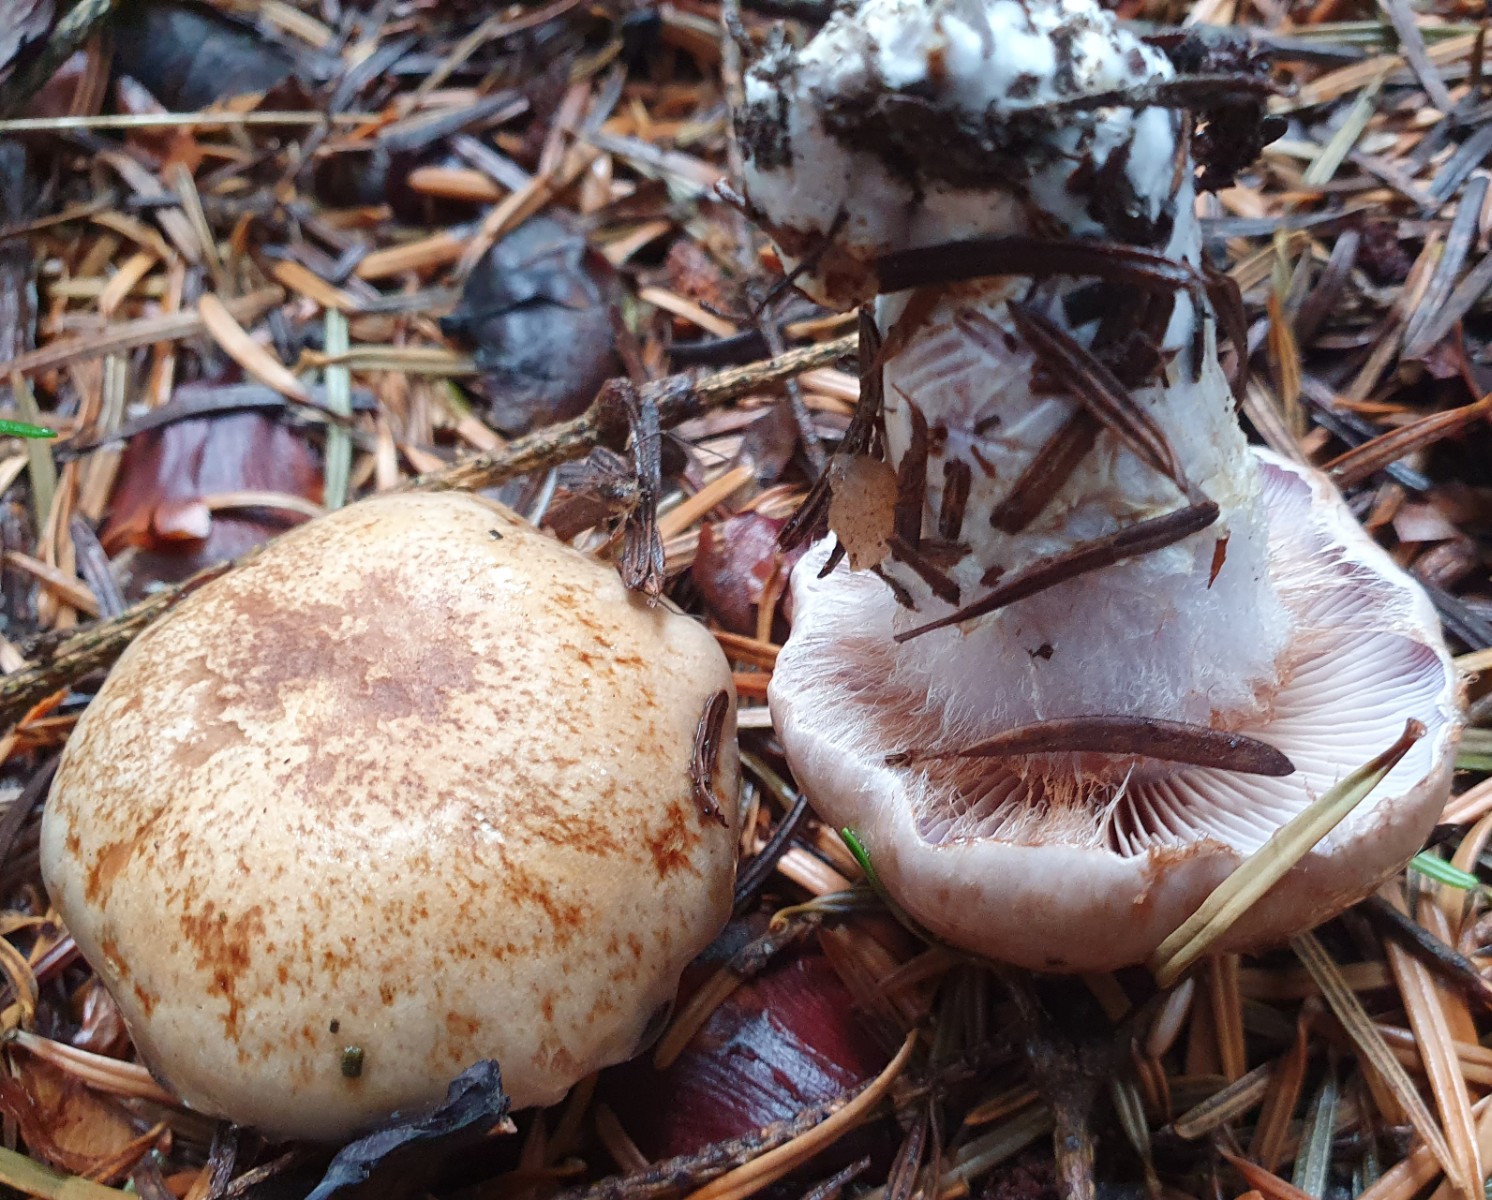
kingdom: Fungi
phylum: Basidiomycota
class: Agaricomycetes
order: Agaricales
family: Cortinariaceae
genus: Cortinarius
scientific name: Cortinarius largus
